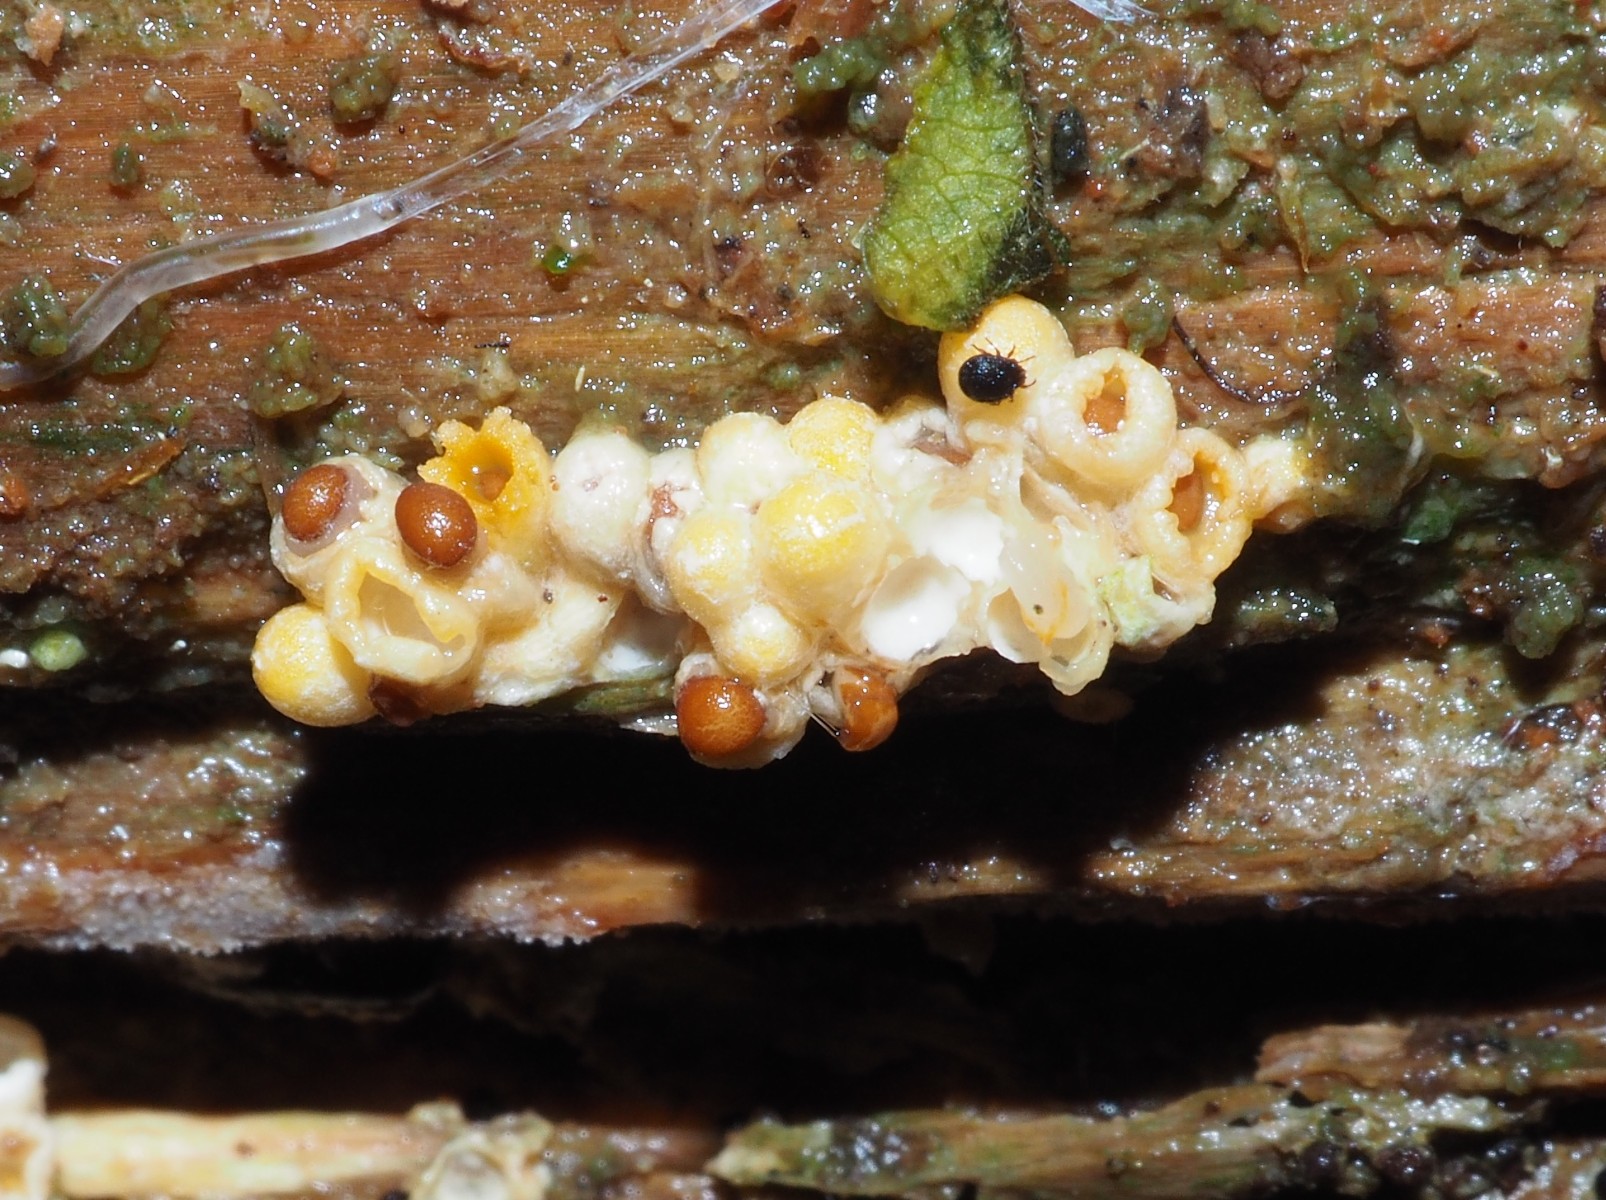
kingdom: Fungi
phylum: Basidiomycota
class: Agaricomycetes
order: Geastrales
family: Geastraceae
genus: Sphaerobolus
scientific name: Sphaerobolus stellatus
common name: bombekaster
